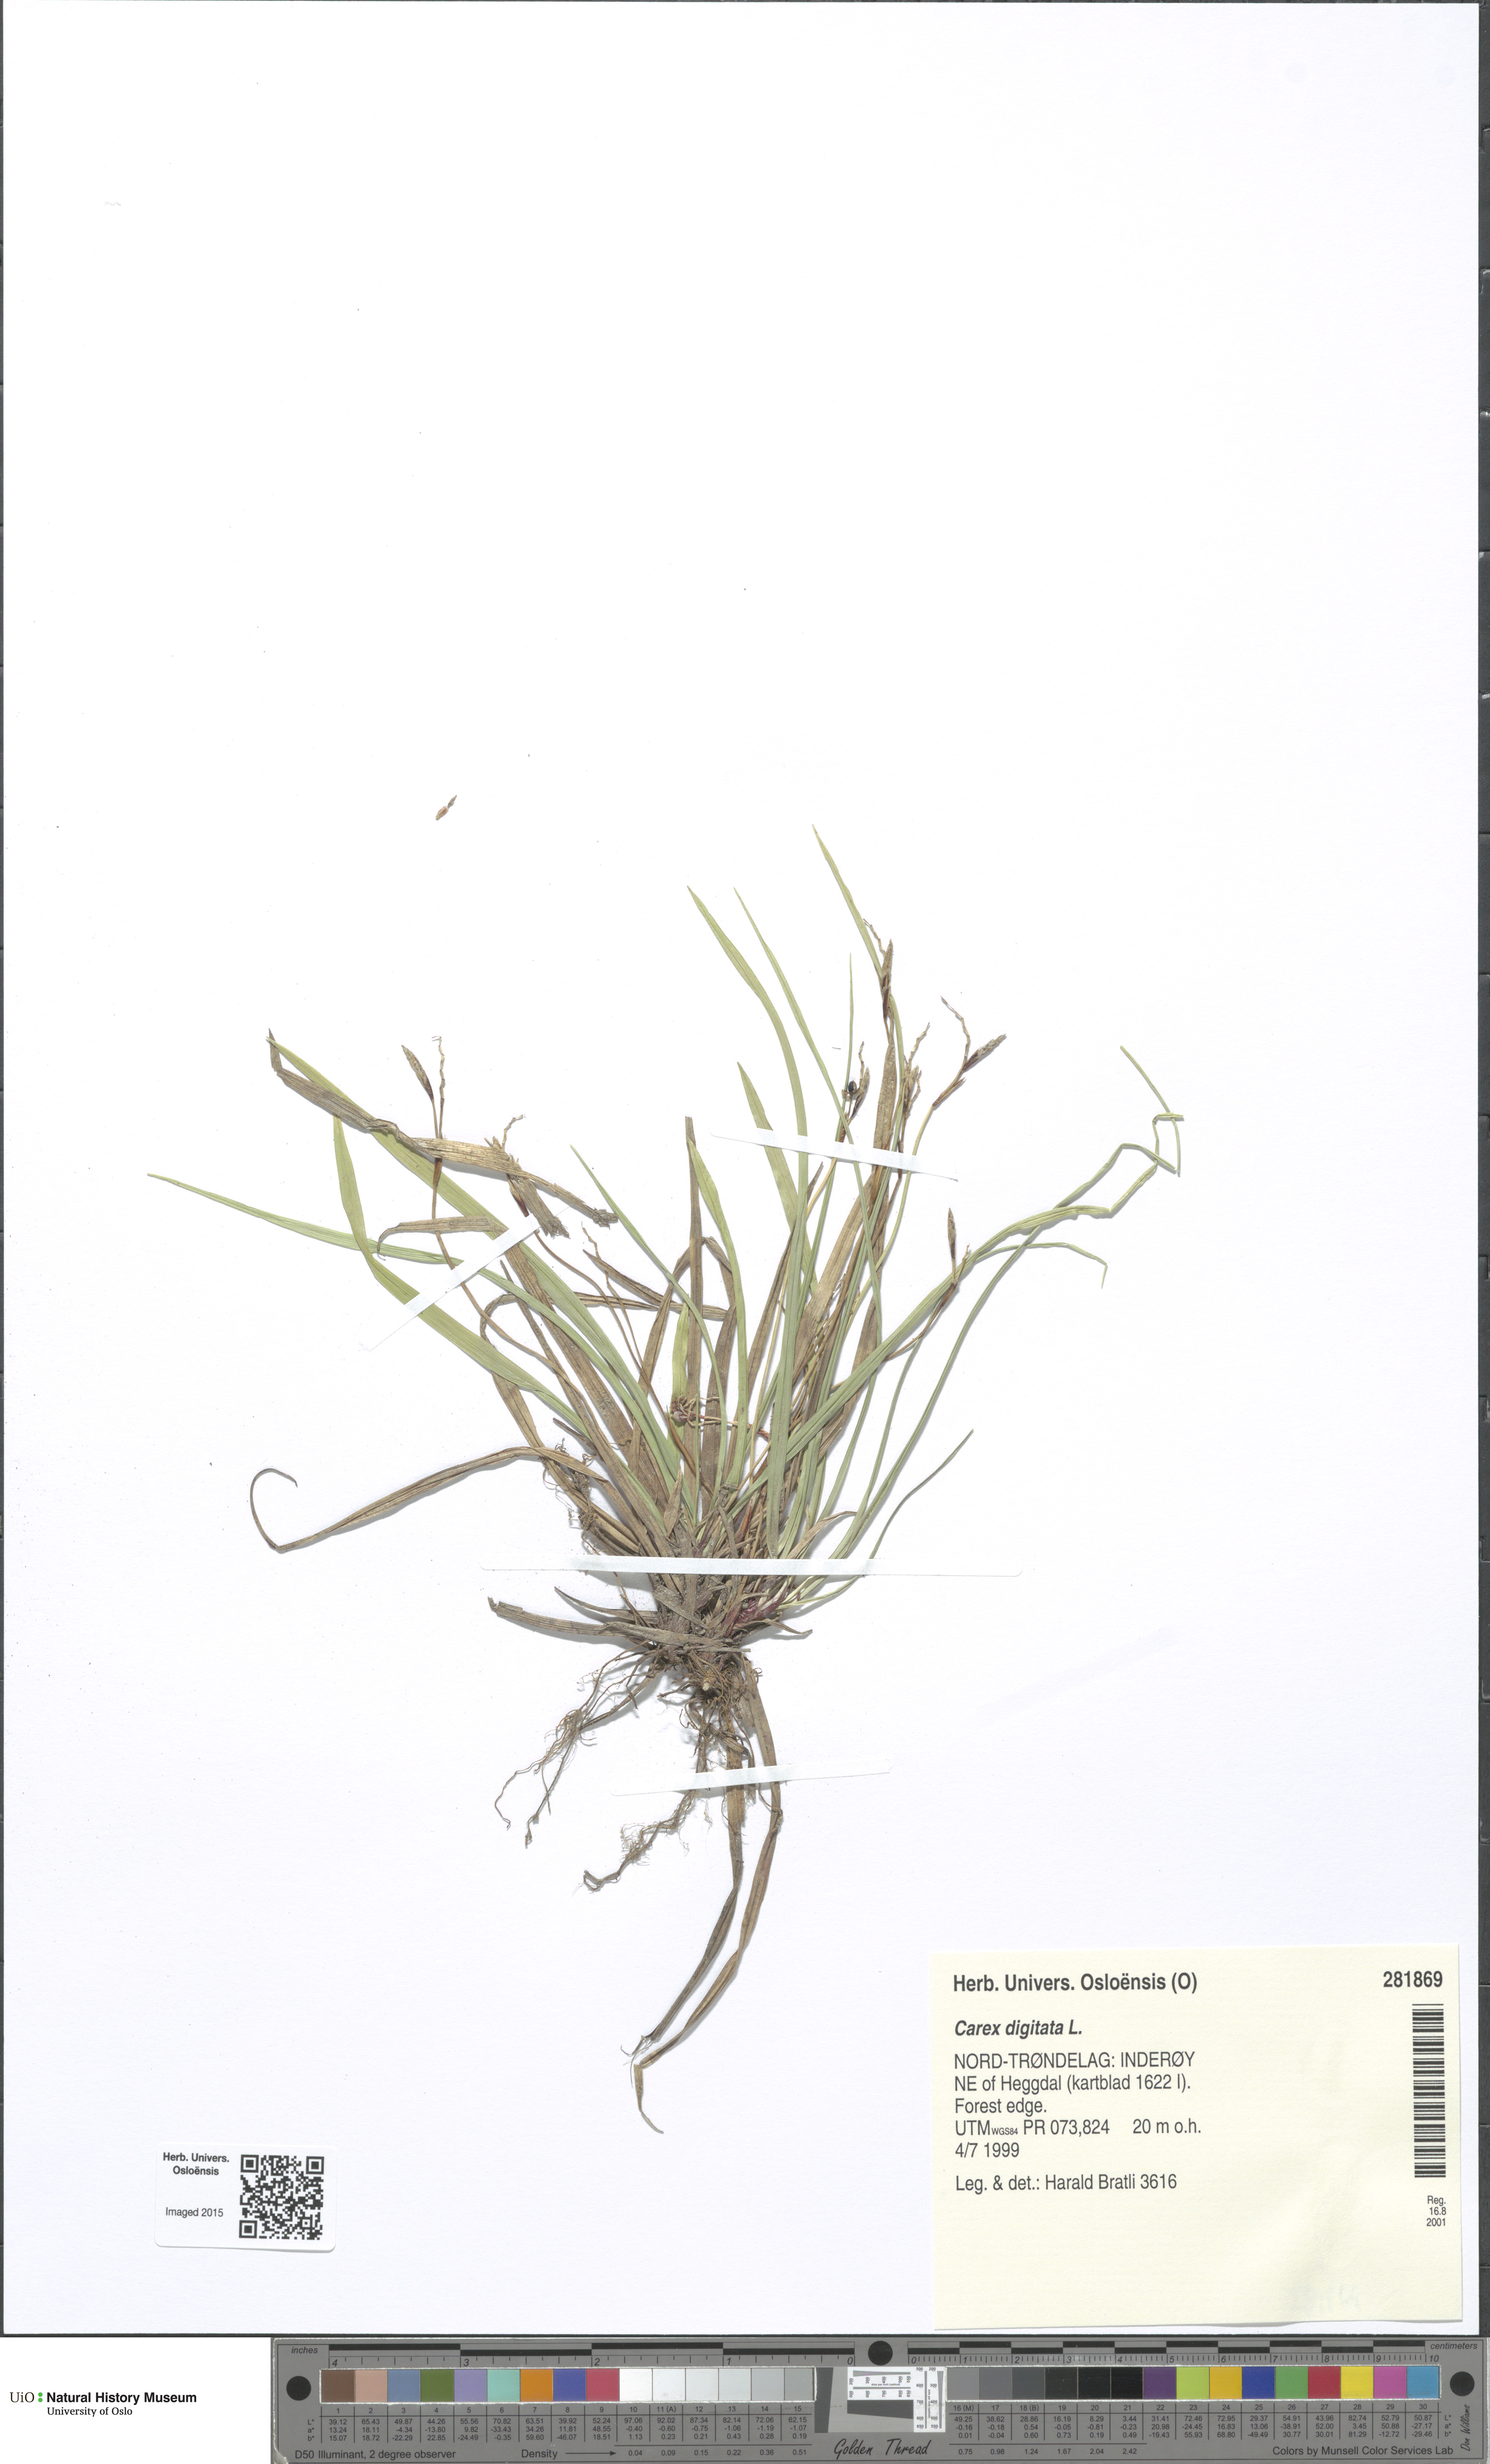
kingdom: Plantae
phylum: Tracheophyta
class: Liliopsida
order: Poales
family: Cyperaceae
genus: Carex
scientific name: Carex digitata
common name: Fingered sedge
